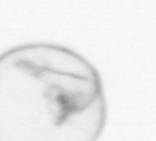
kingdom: Chromista
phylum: Myzozoa
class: Dinophyceae
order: Noctilucales
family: Noctilucaceae
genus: Noctiluca
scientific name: Noctiluca scintillans
